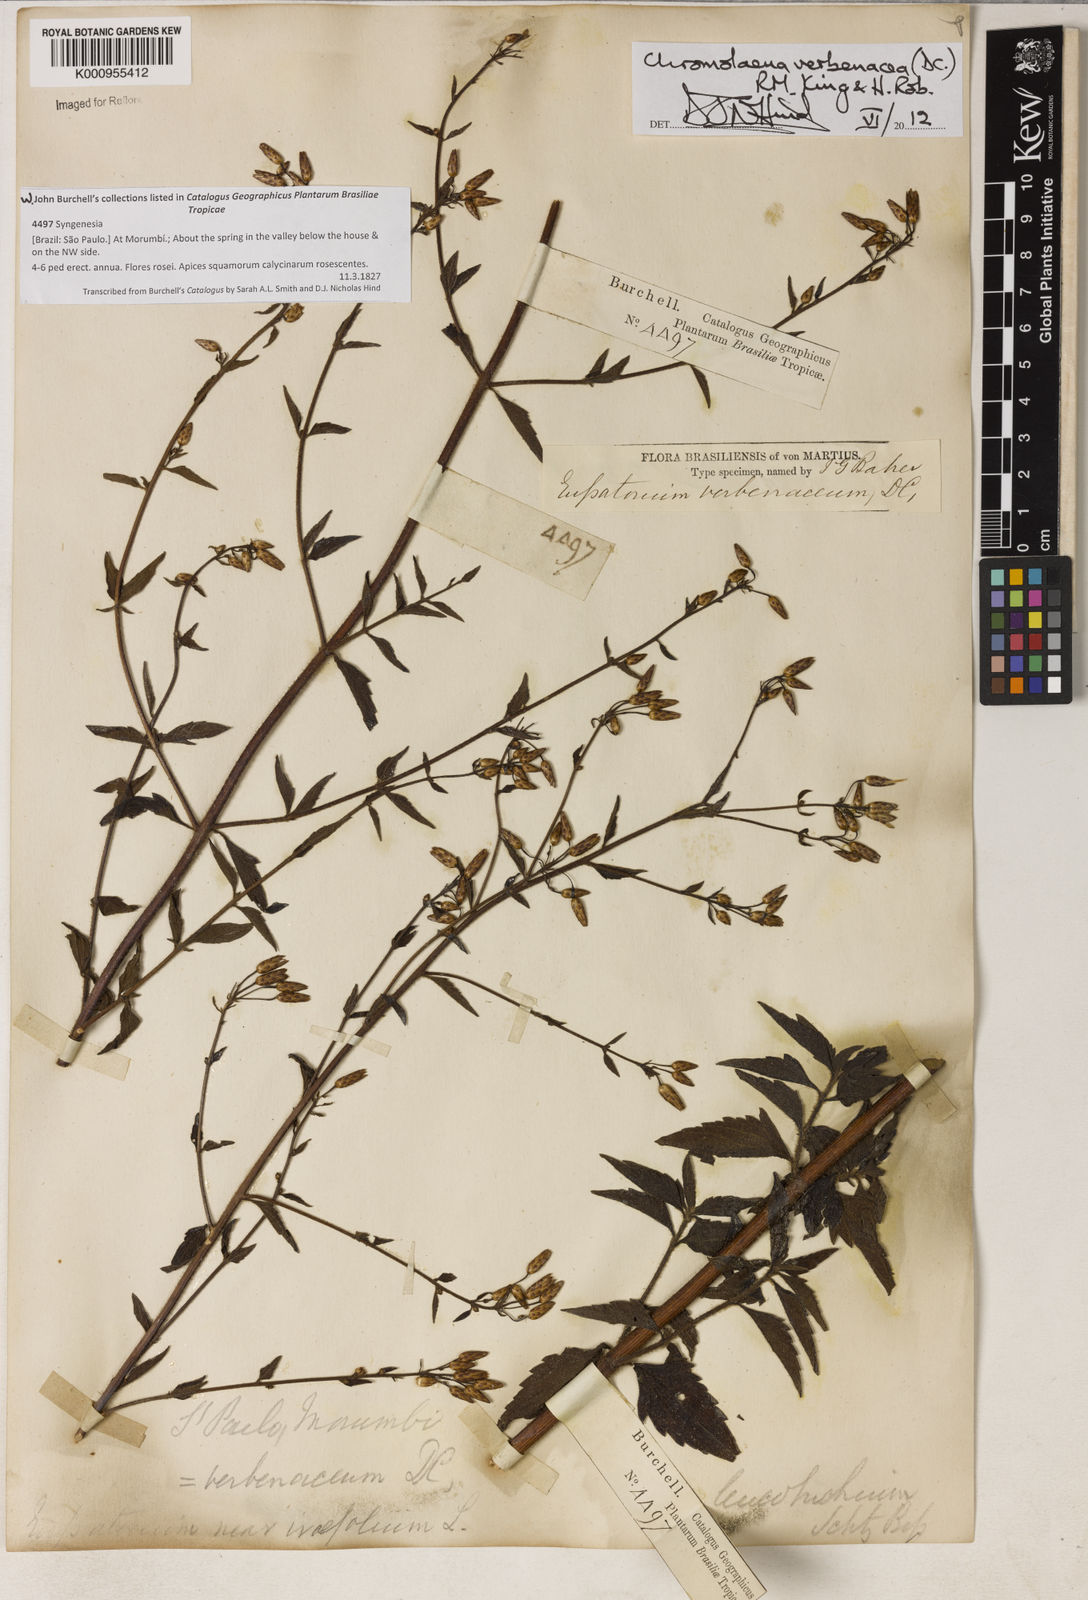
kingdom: Plantae
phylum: Tracheophyta
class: Magnoliopsida
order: Asterales
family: Asteraceae
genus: Chromolaena
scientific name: Chromolaena verbenacea
